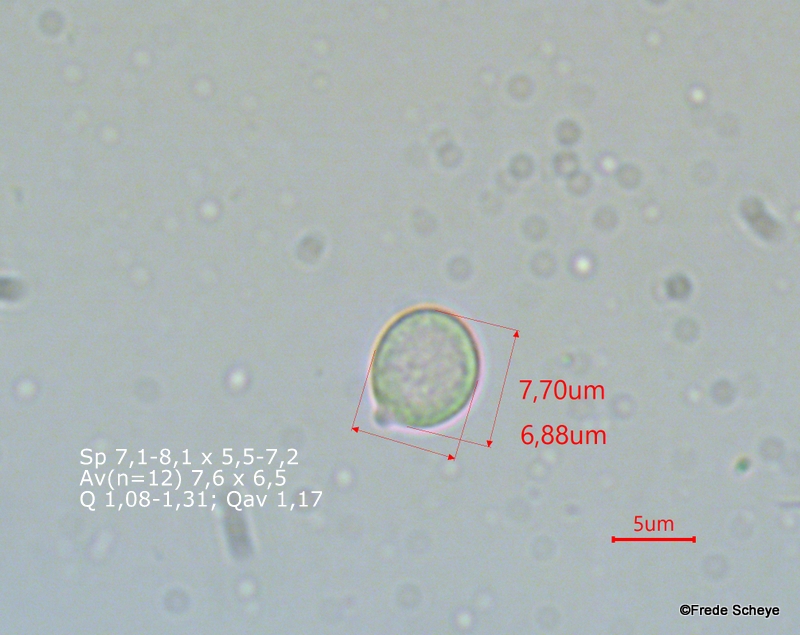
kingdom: Fungi
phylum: Basidiomycota
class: Agaricomycetes
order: Cantharellales
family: Hydnaceae
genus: Hydnum
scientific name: Hydnum repandum
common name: almindelig pigsvamp
